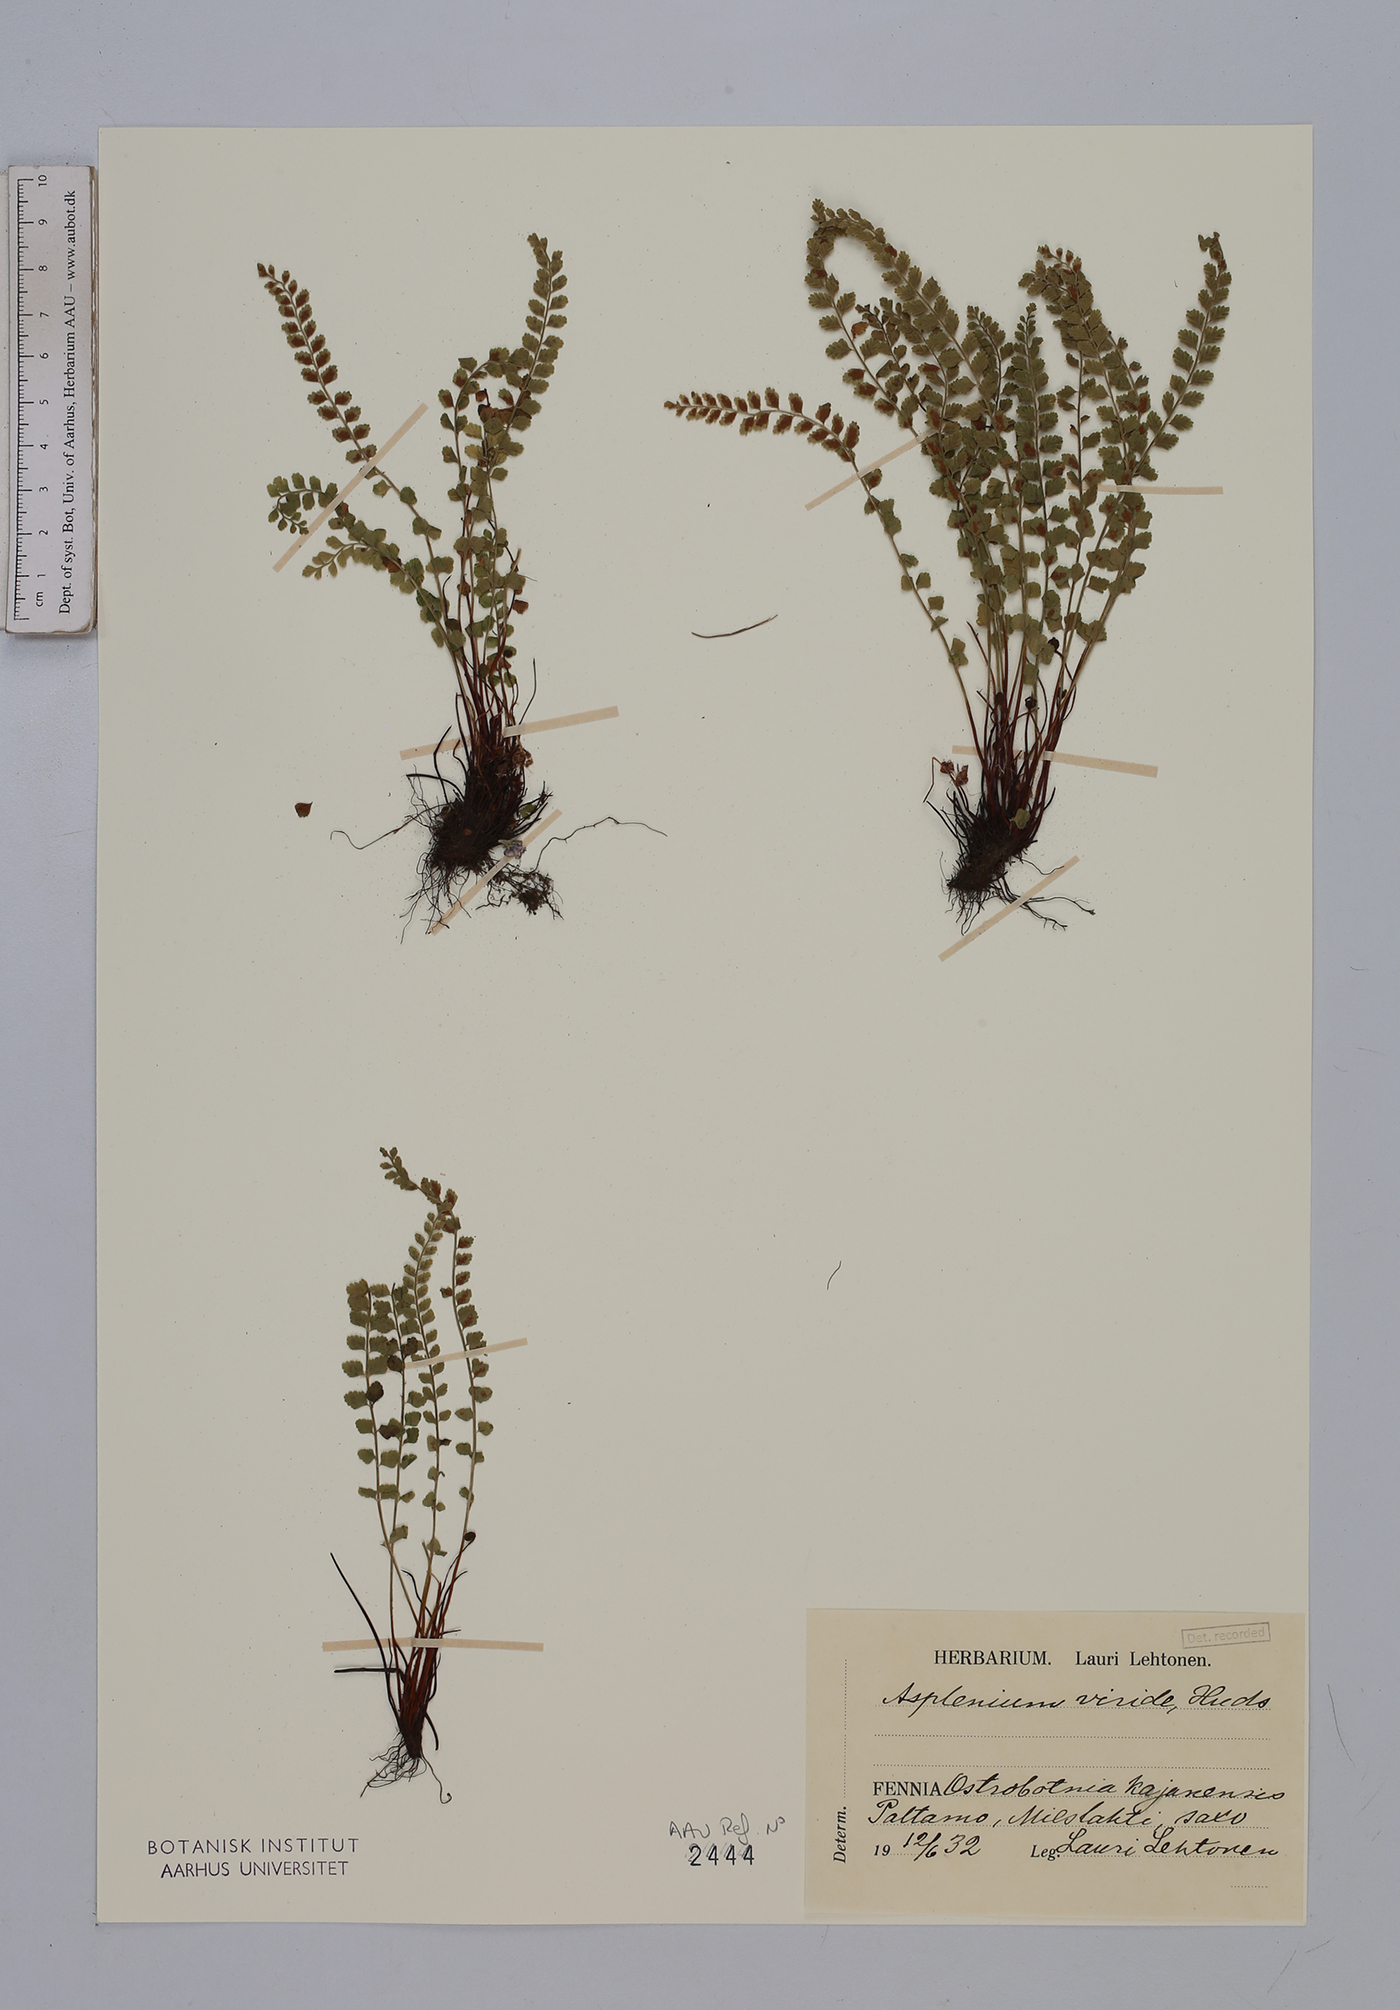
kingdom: Plantae
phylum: Tracheophyta
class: Polypodiopsida
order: Polypodiales
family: Aspleniaceae
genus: Asplenium
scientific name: Asplenium viride
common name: Green spleenwort
